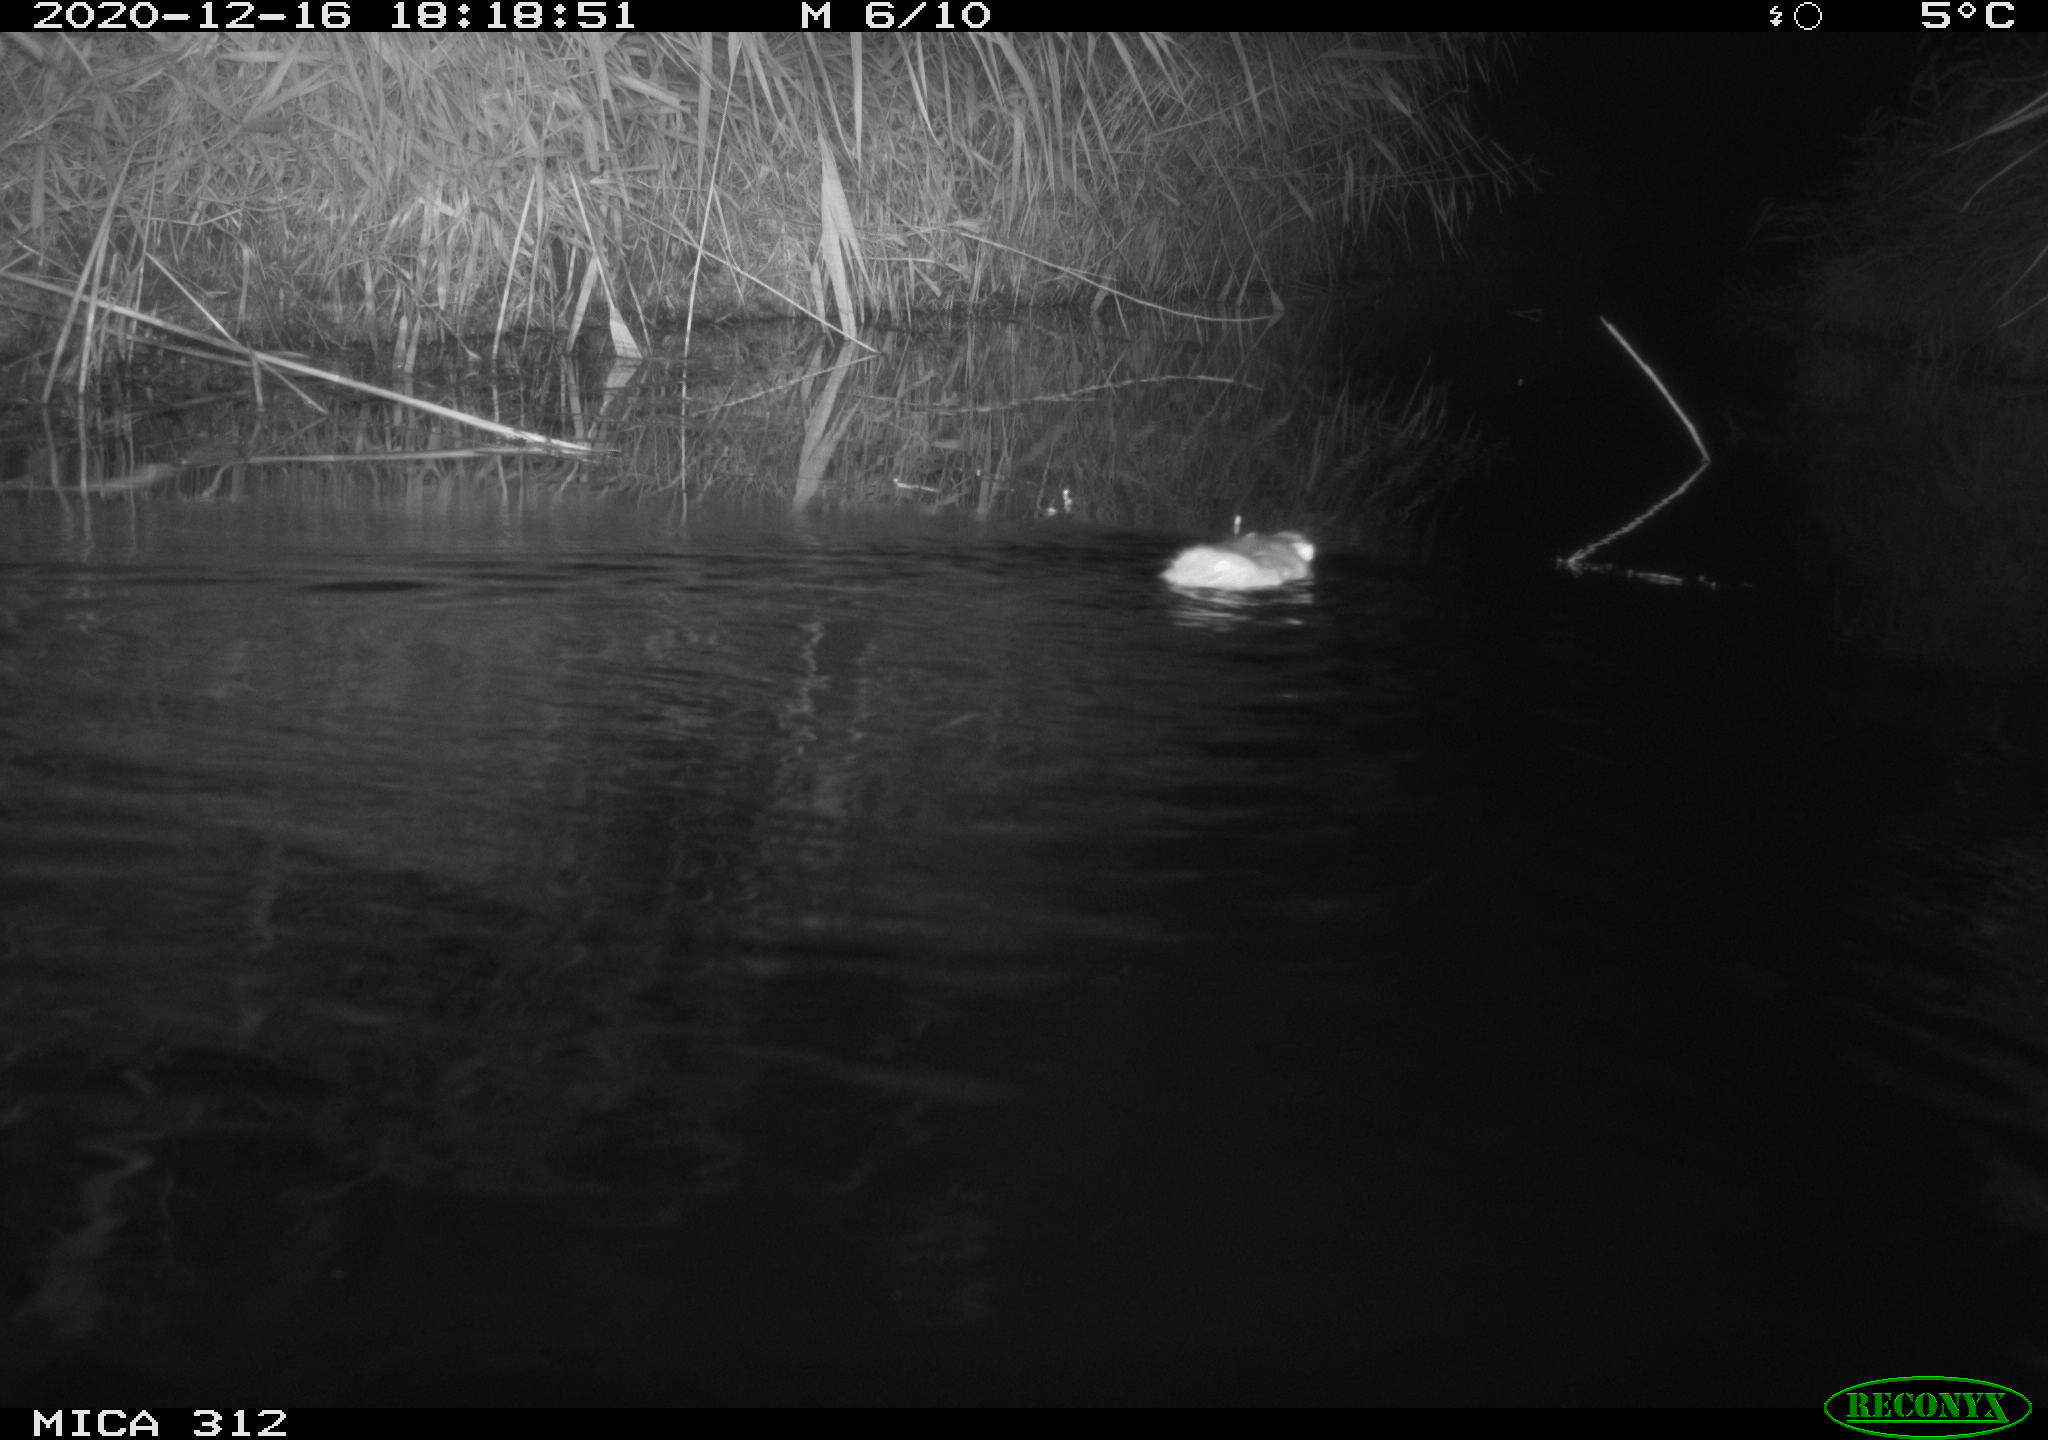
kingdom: Animalia
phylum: Chordata
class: Mammalia
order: Rodentia
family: Muridae
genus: Rattus
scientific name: Rattus norvegicus
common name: Brown rat
